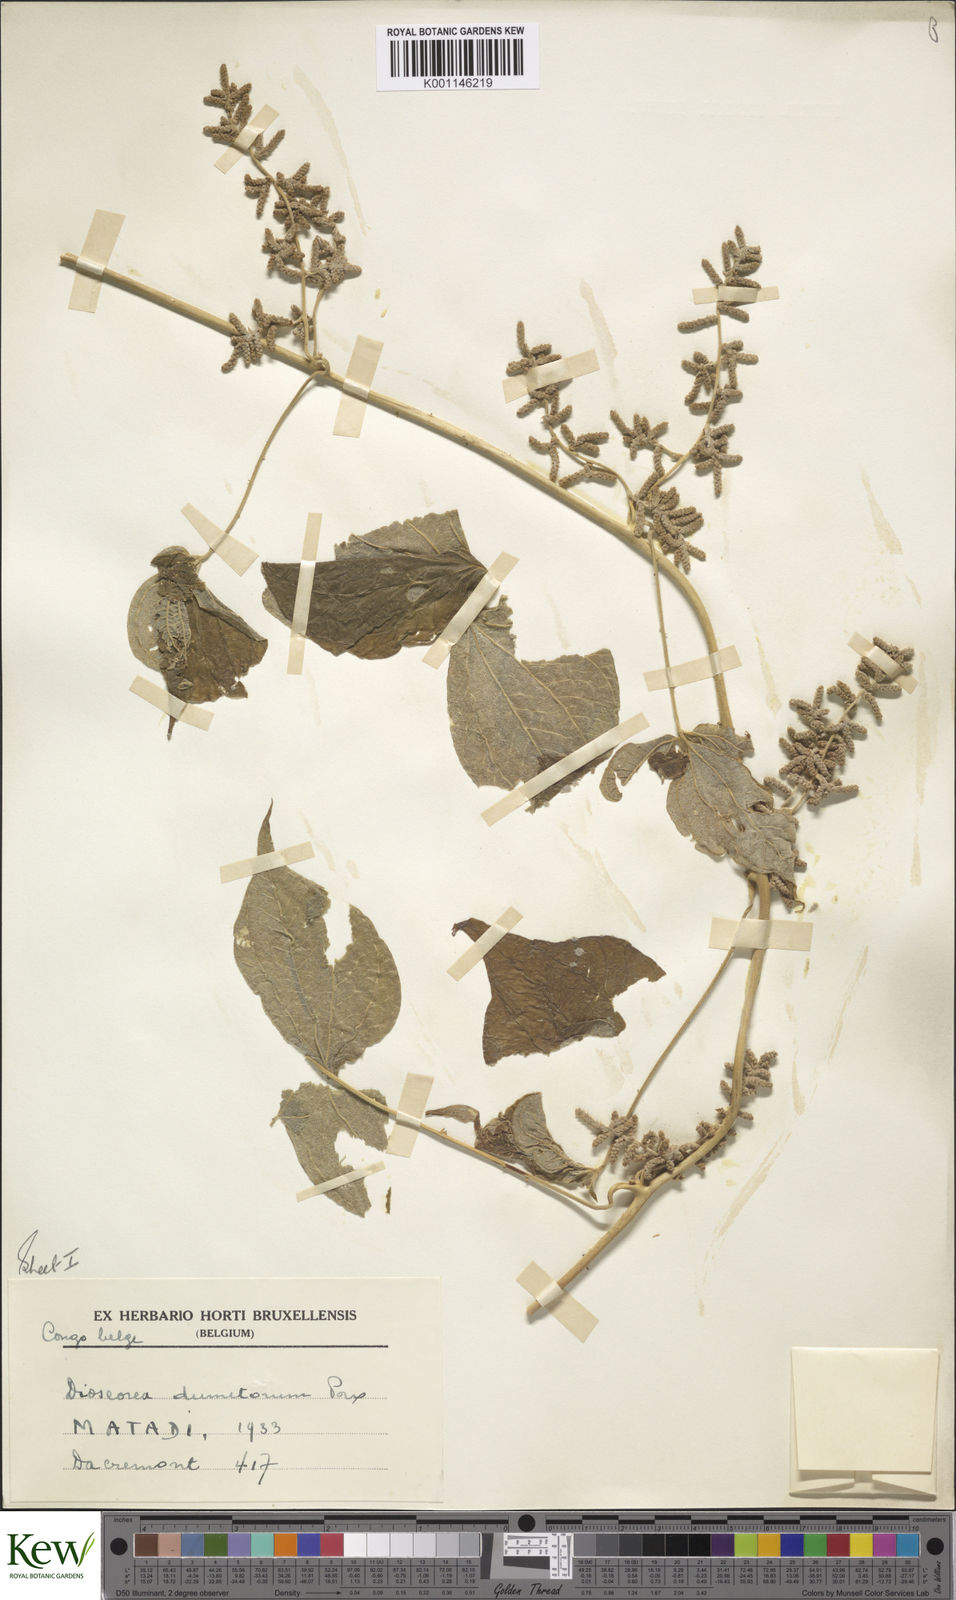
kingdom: Plantae
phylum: Tracheophyta
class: Liliopsida
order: Dioscoreales
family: Dioscoreaceae
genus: Dioscorea
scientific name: Dioscorea dumetorum
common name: African bitter yam
